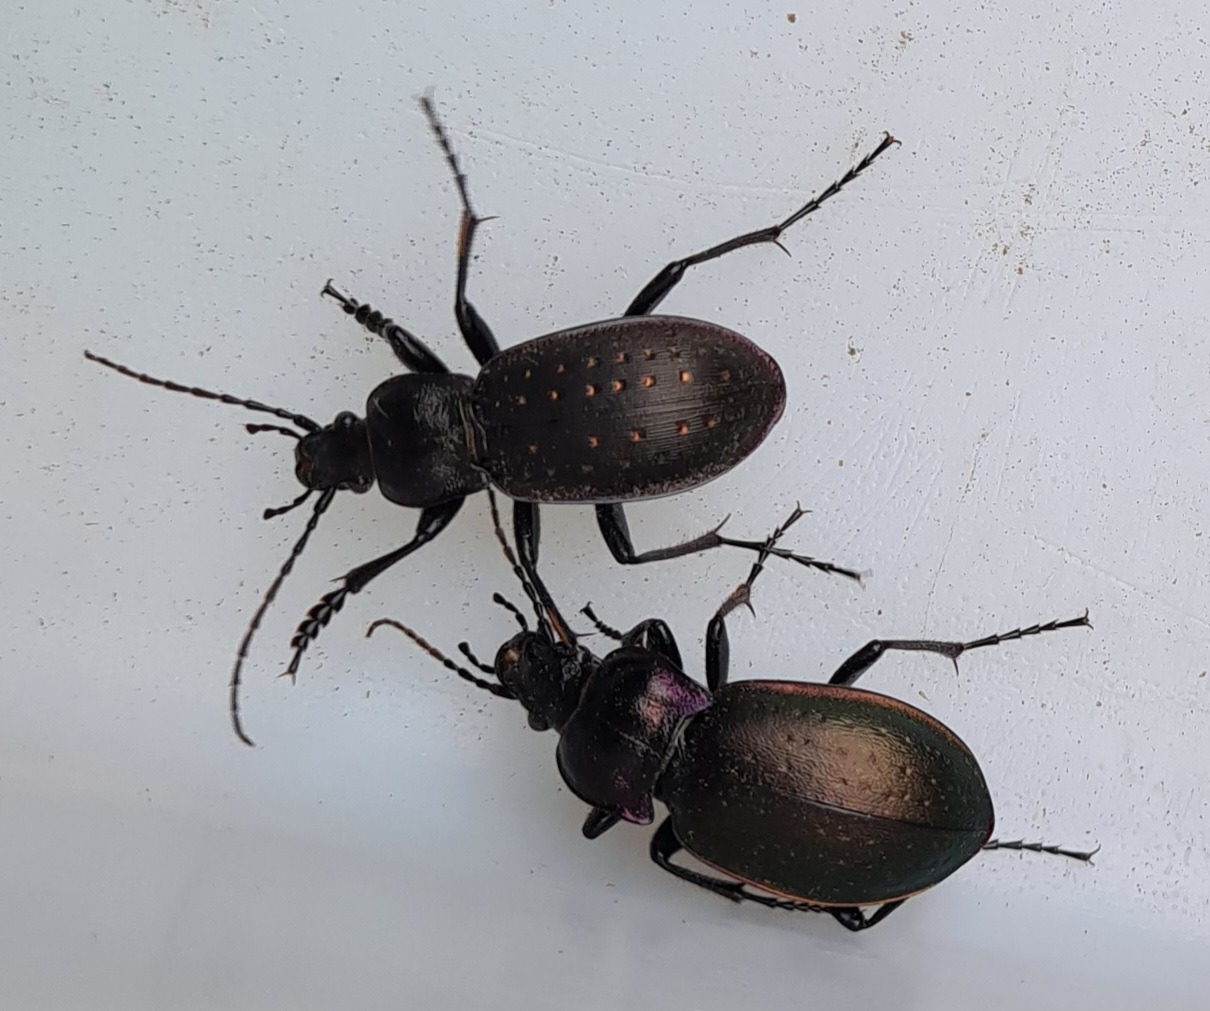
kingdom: Animalia
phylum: Arthropoda
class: Insecta
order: Coleoptera
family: Carabidae
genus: Carabus
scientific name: Carabus nemoralis
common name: Kratløber
